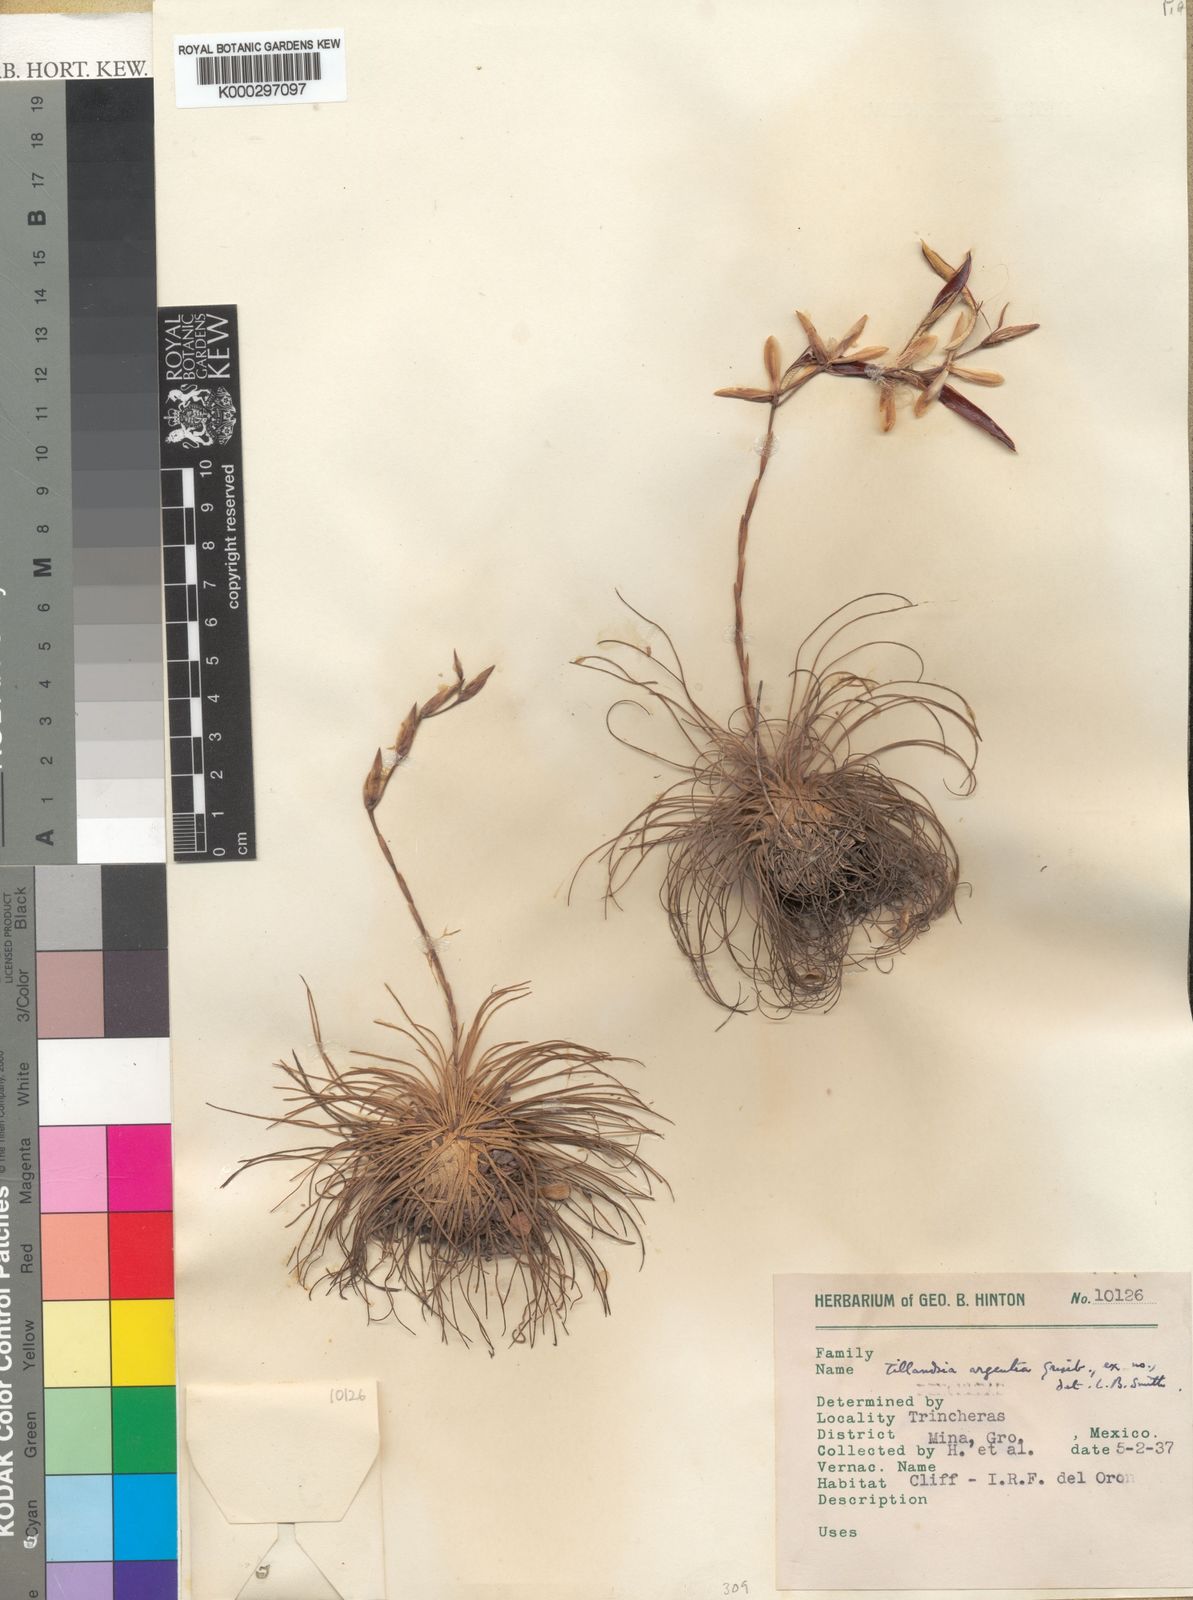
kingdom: Plantae
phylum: Tracheophyta
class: Liliopsida
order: Poales
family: Bromeliaceae
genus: Tillandsia
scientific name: Tillandsia argentea
